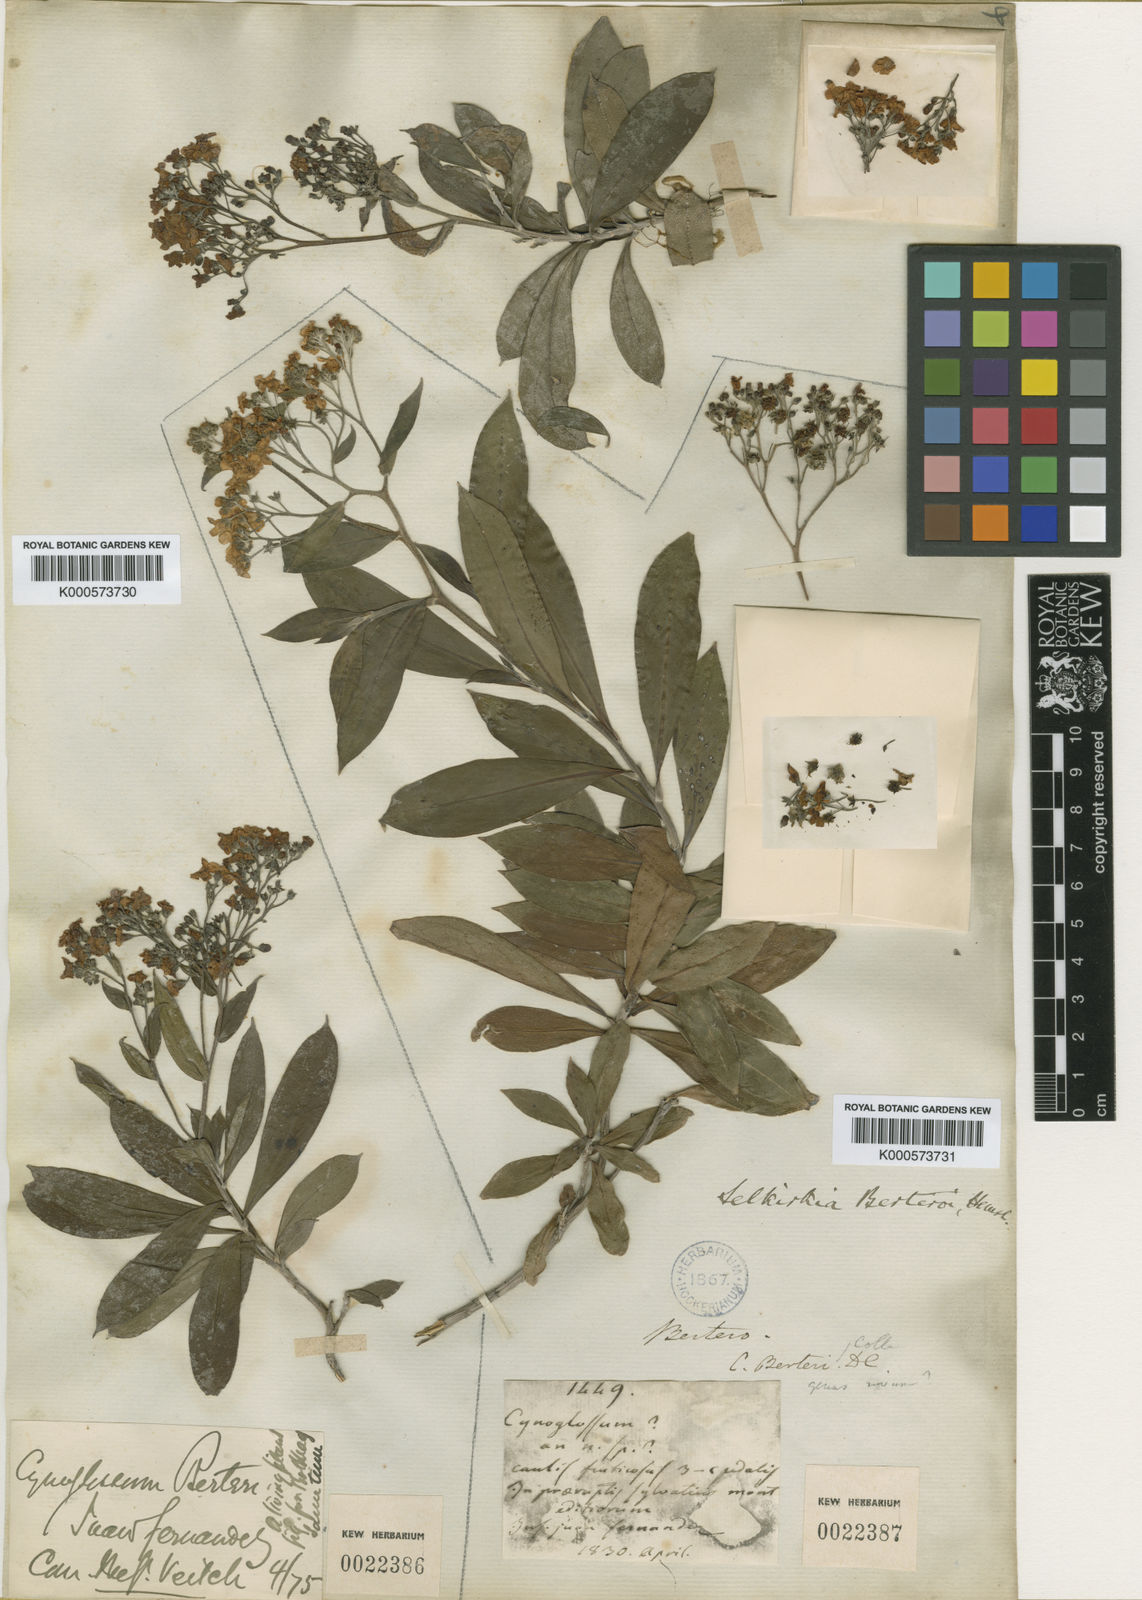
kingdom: Plantae
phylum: Tracheophyta
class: Magnoliopsida
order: Boraginales
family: Boraginaceae
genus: Selkirkia
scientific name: Selkirkia berteroi
